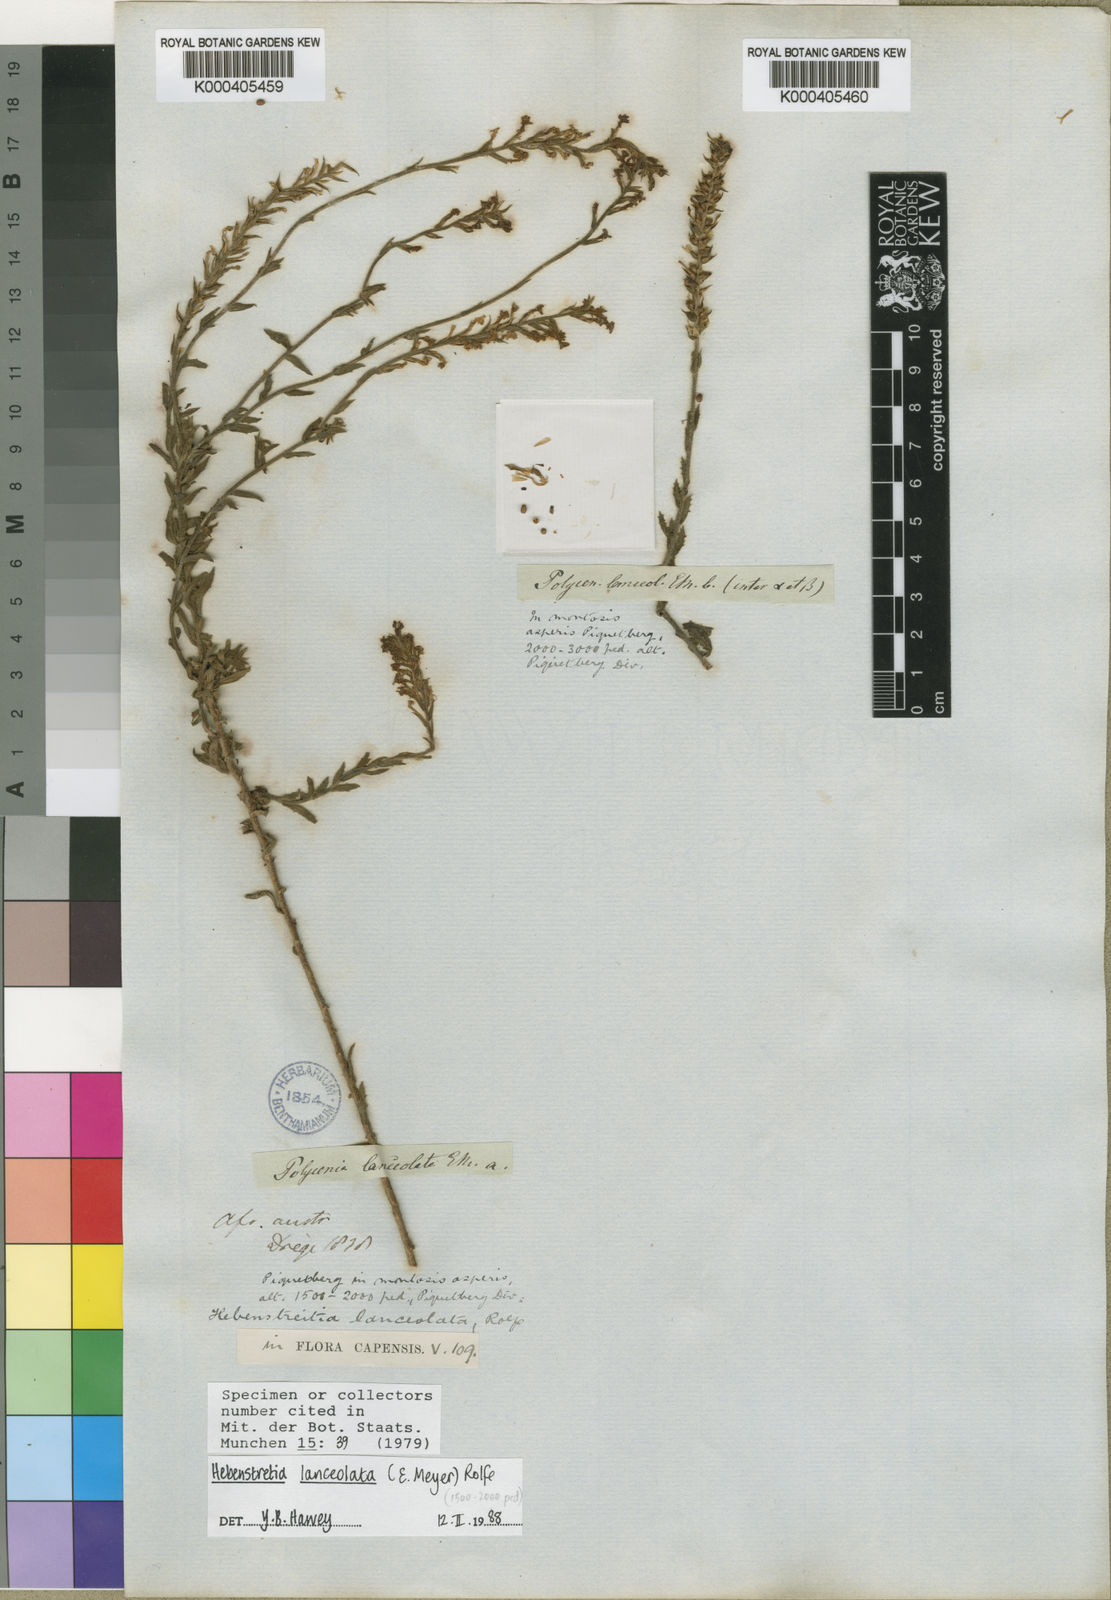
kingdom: Plantae
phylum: Tracheophyta
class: Magnoliopsida
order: Lamiales
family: Scrophulariaceae
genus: Hebenstretia
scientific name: Hebenstretia lanceolata
